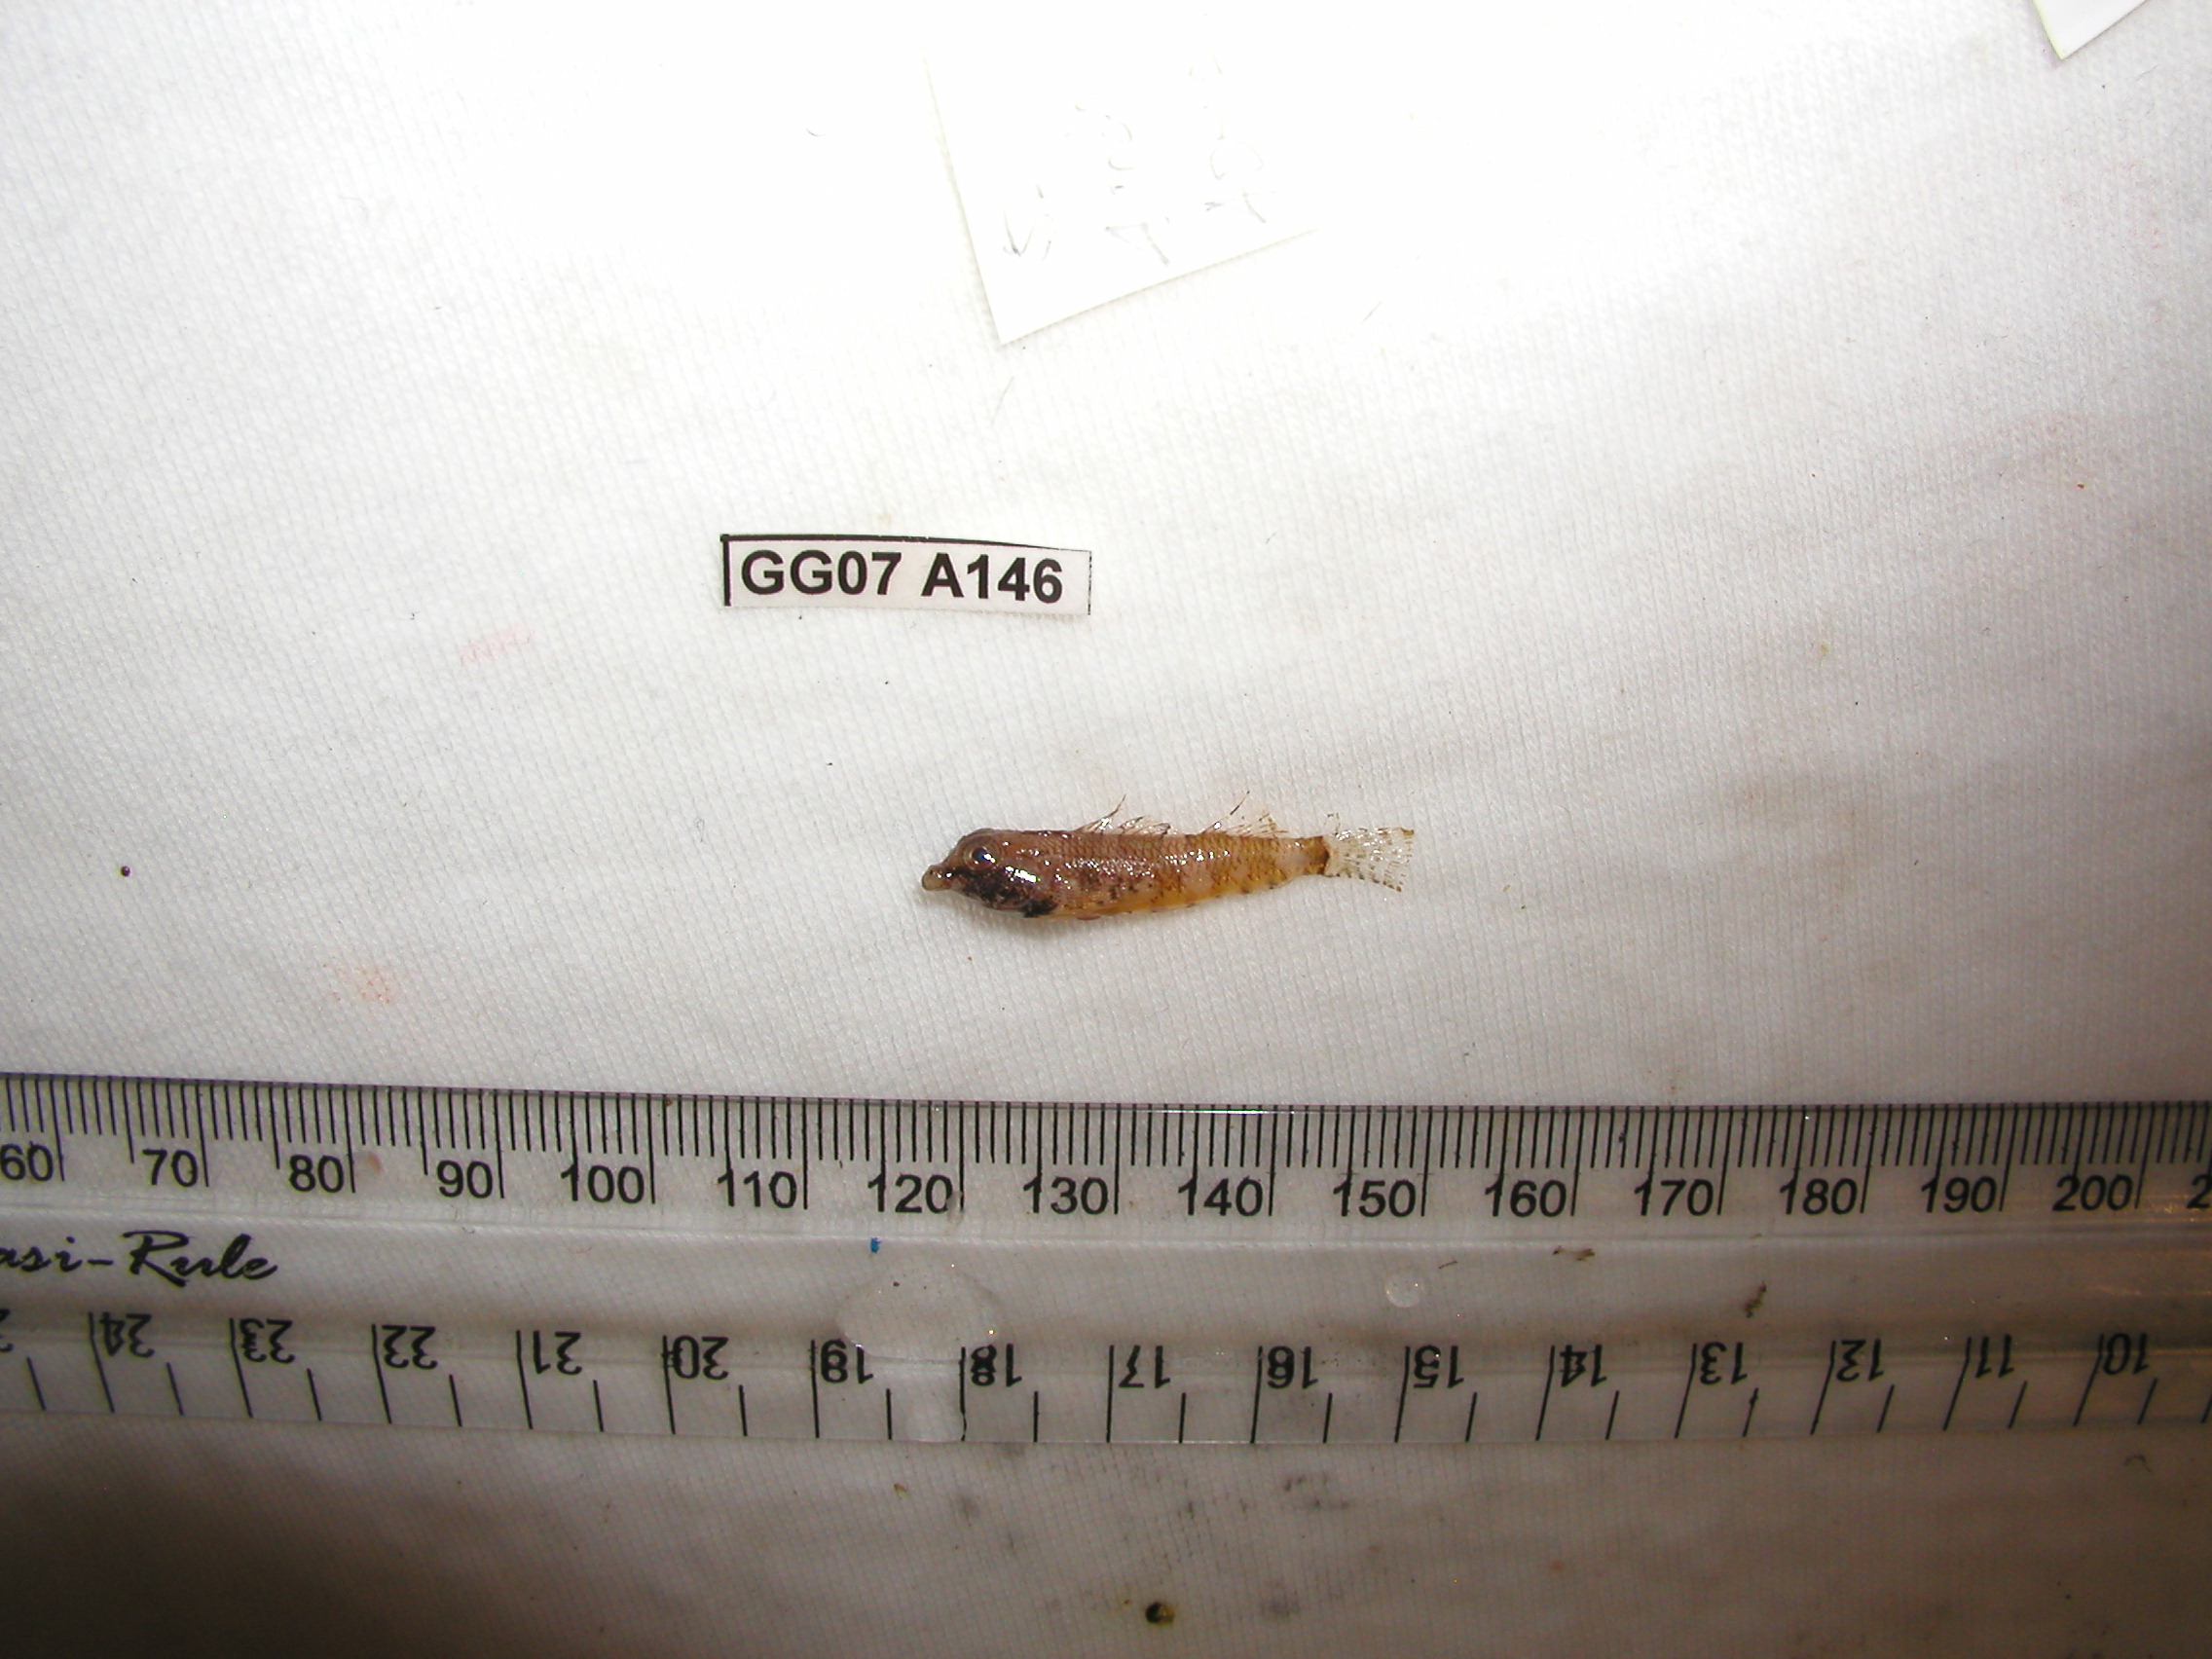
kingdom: Animalia
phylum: Chordata
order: Perciformes
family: Tripterygiidae
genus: Enneapterygius
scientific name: Enneapterygius ventermaculus
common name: Blotched triplefin
